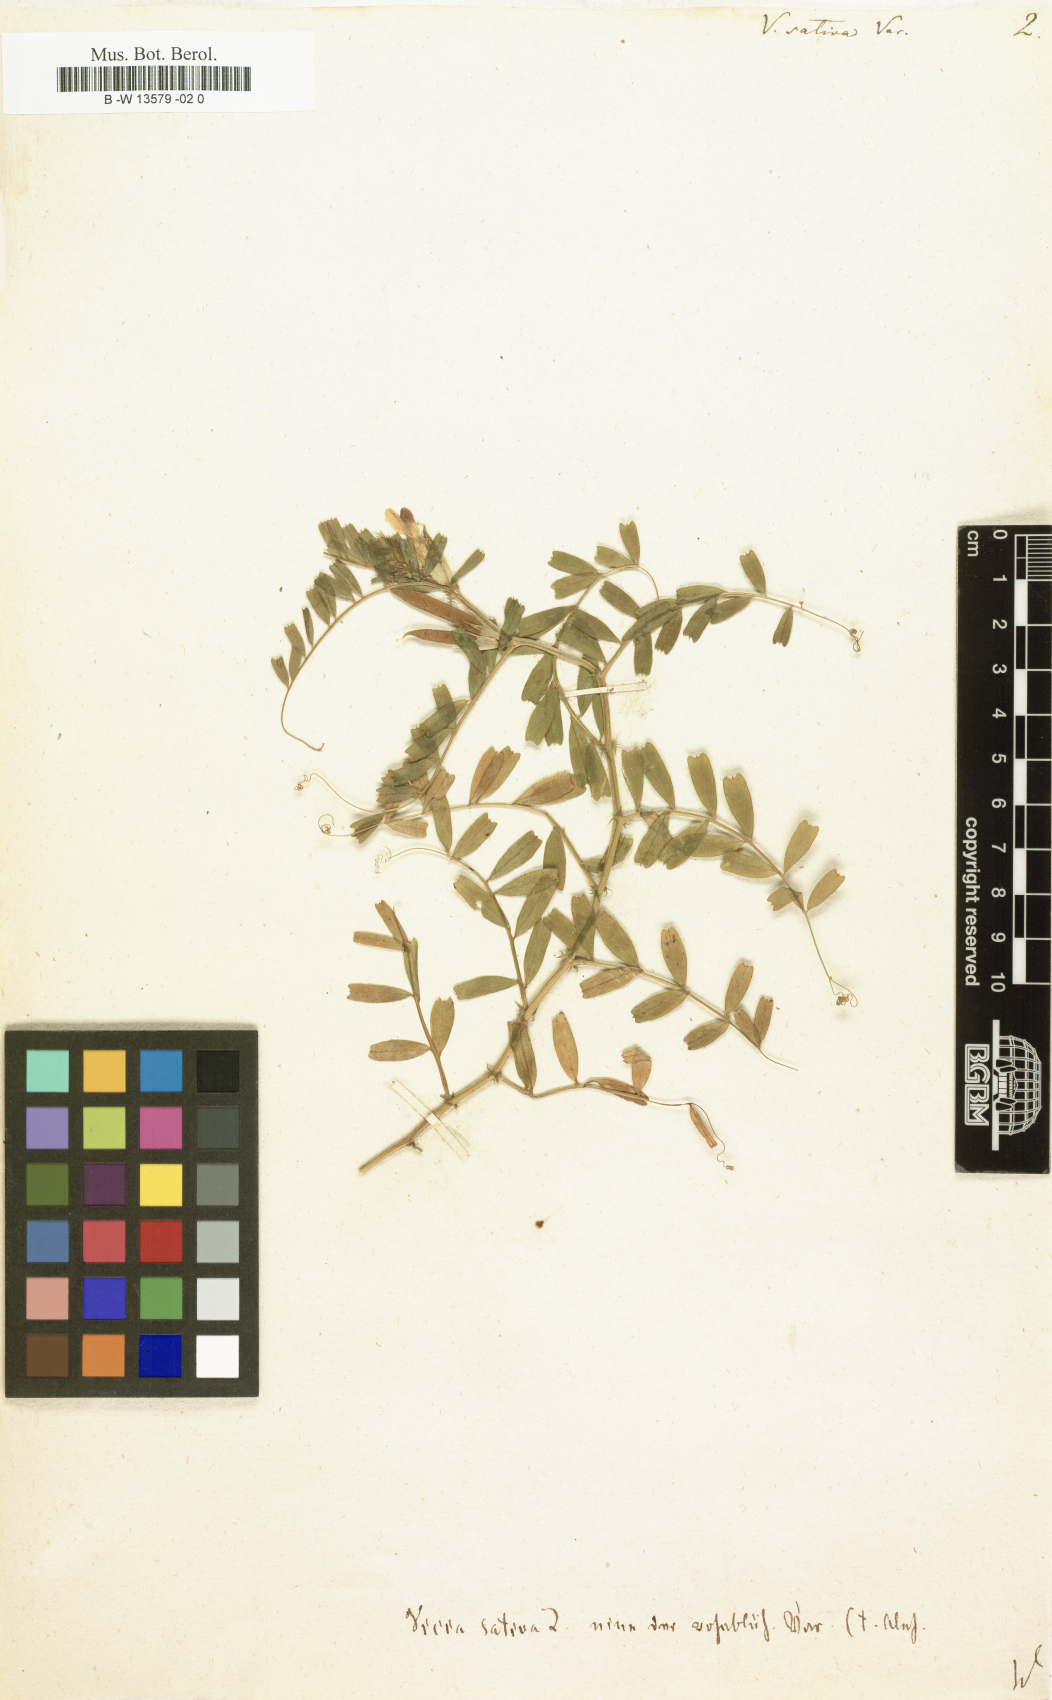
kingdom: Plantae
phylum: Tracheophyta
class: Magnoliopsida
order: Fabales
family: Fabaceae
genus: Vicia
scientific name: Vicia sativa
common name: Garden vetch
